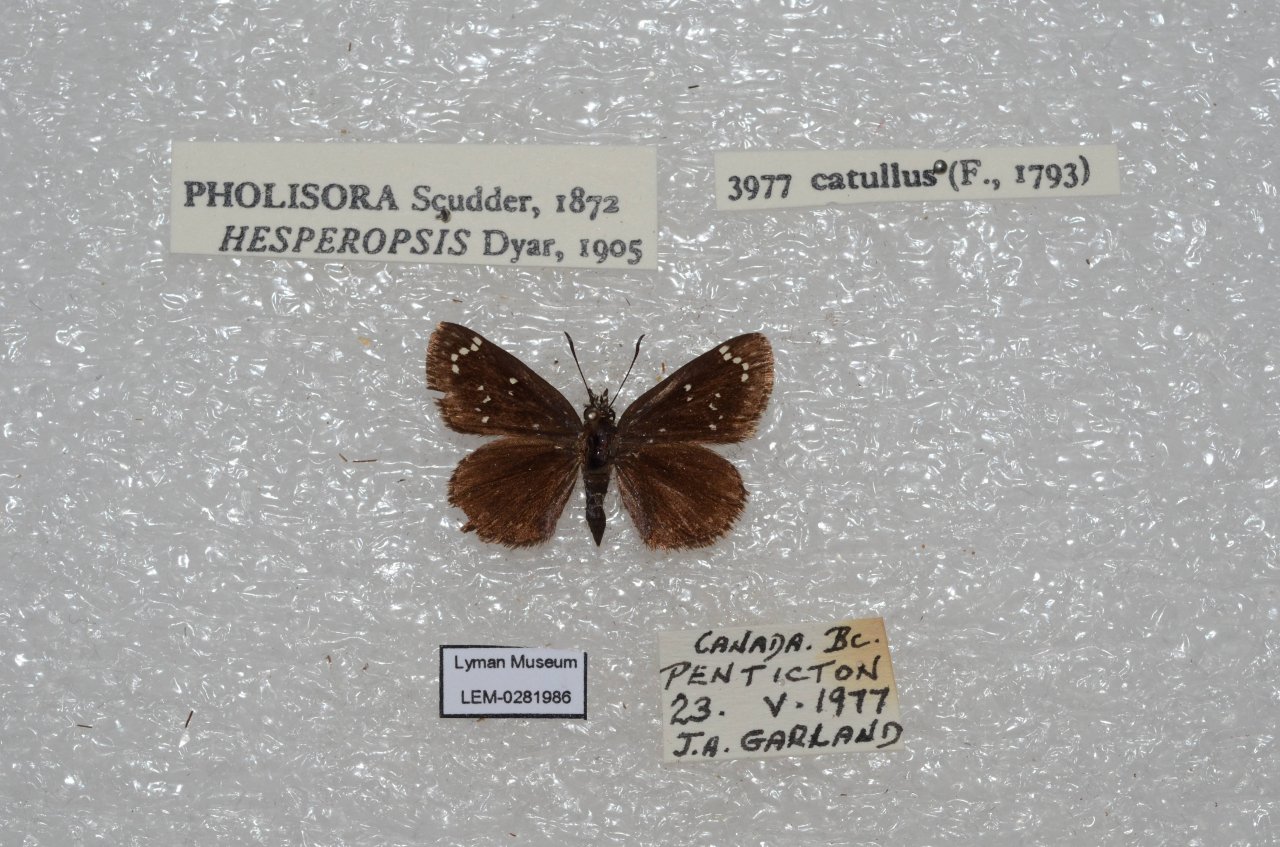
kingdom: Animalia
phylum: Arthropoda
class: Insecta
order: Lepidoptera
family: Hesperiidae
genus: Pholisora
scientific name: Pholisora catullus
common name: Common Sootywing
